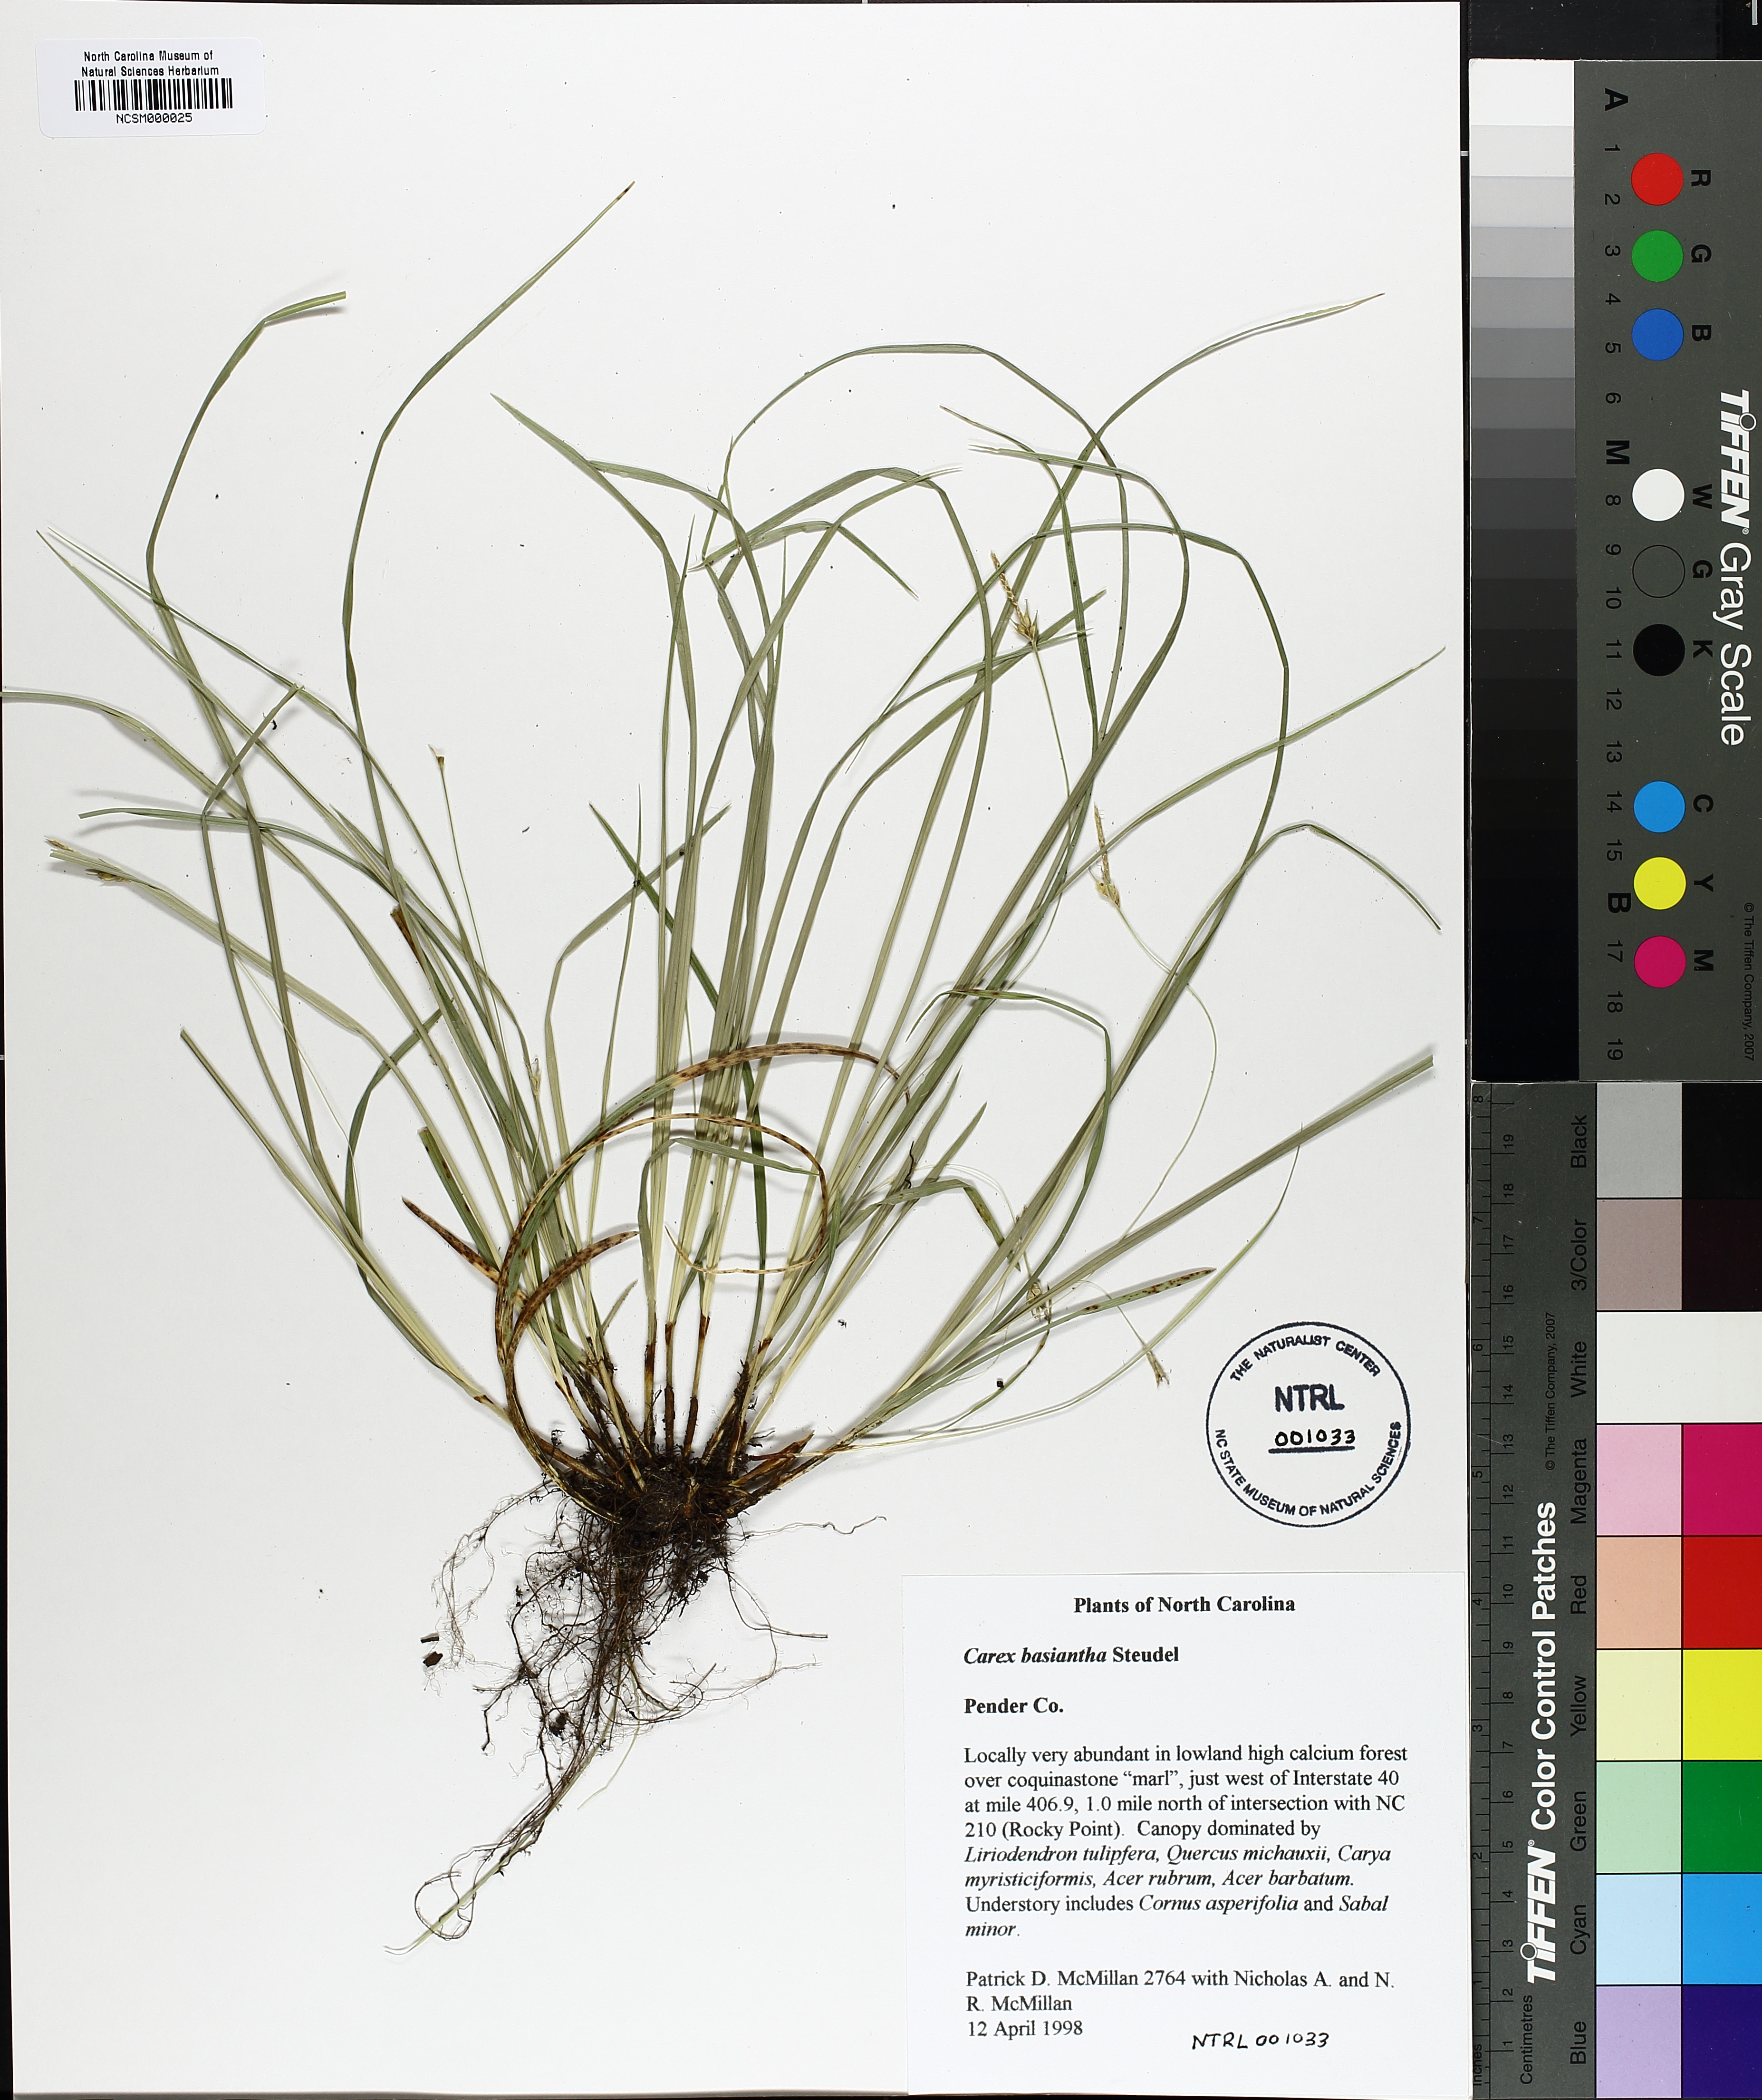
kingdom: Plantae
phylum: Tracheophyta
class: Liliopsida
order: Poales
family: Cyperaceae
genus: Carex
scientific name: Carex basiantha
